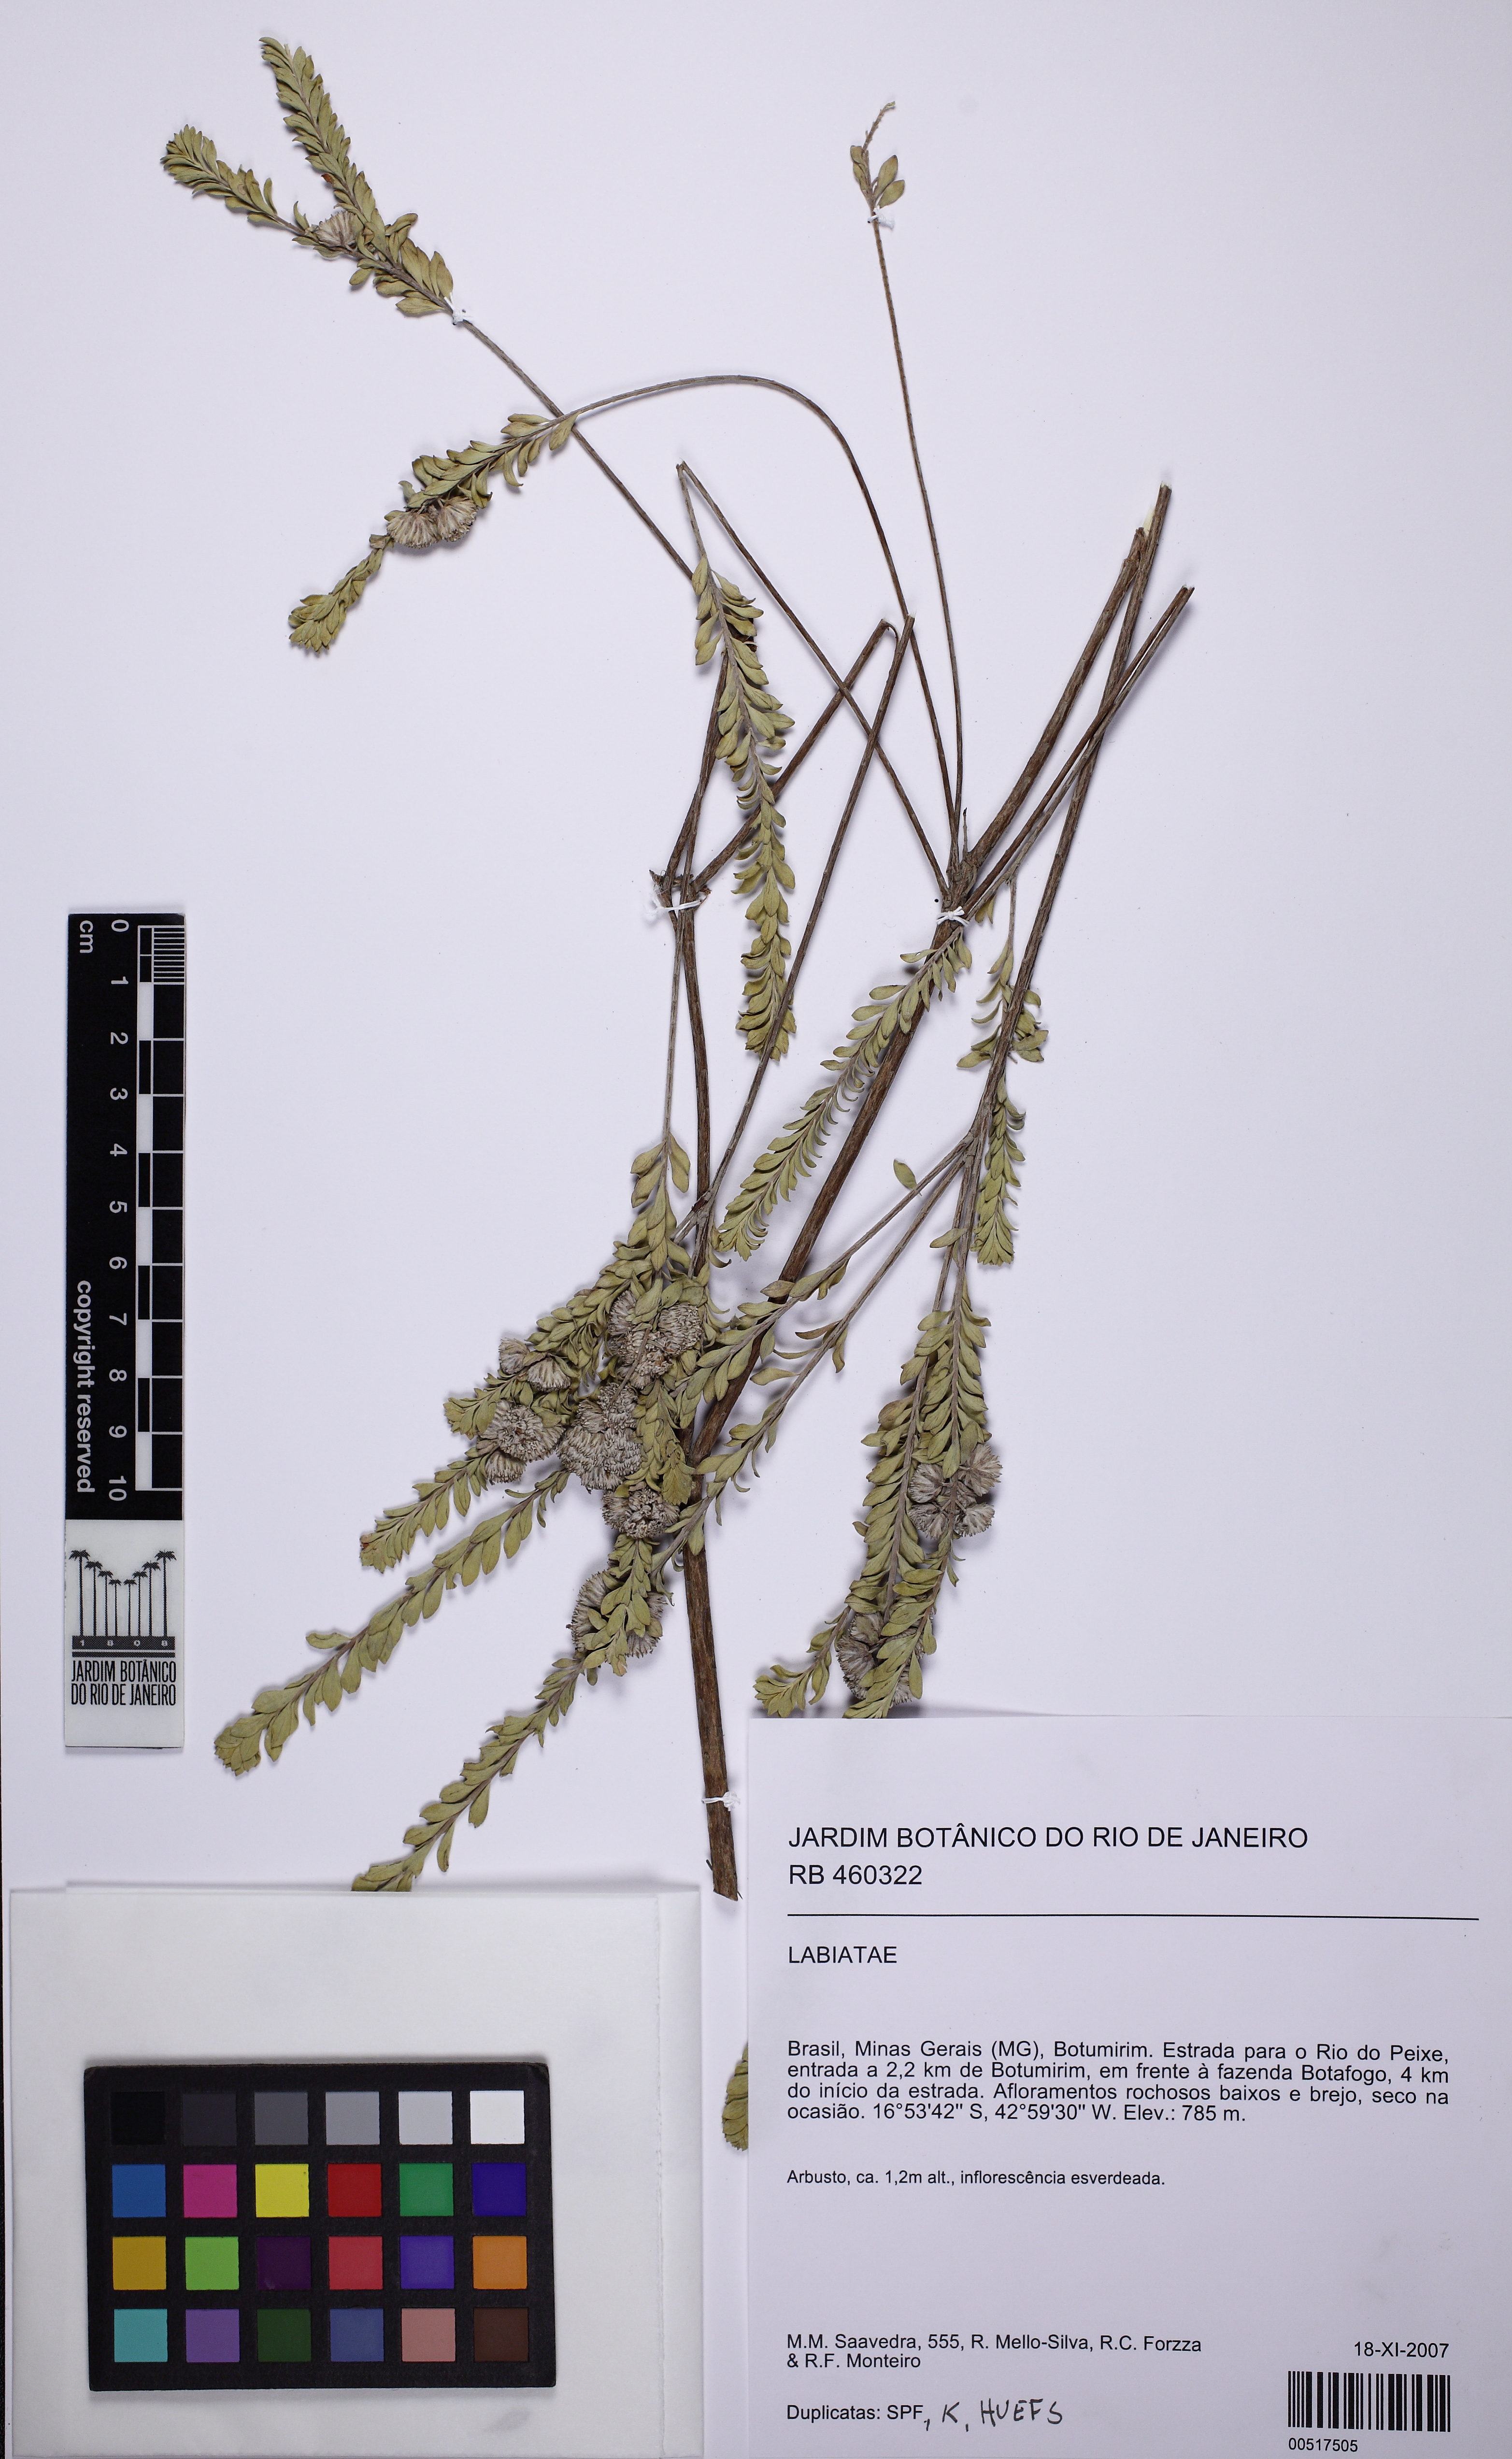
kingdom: Plantae
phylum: Tracheophyta
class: Magnoliopsida
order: Lamiales
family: Lamiaceae
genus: Hyptis
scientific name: Hyptis passerina
